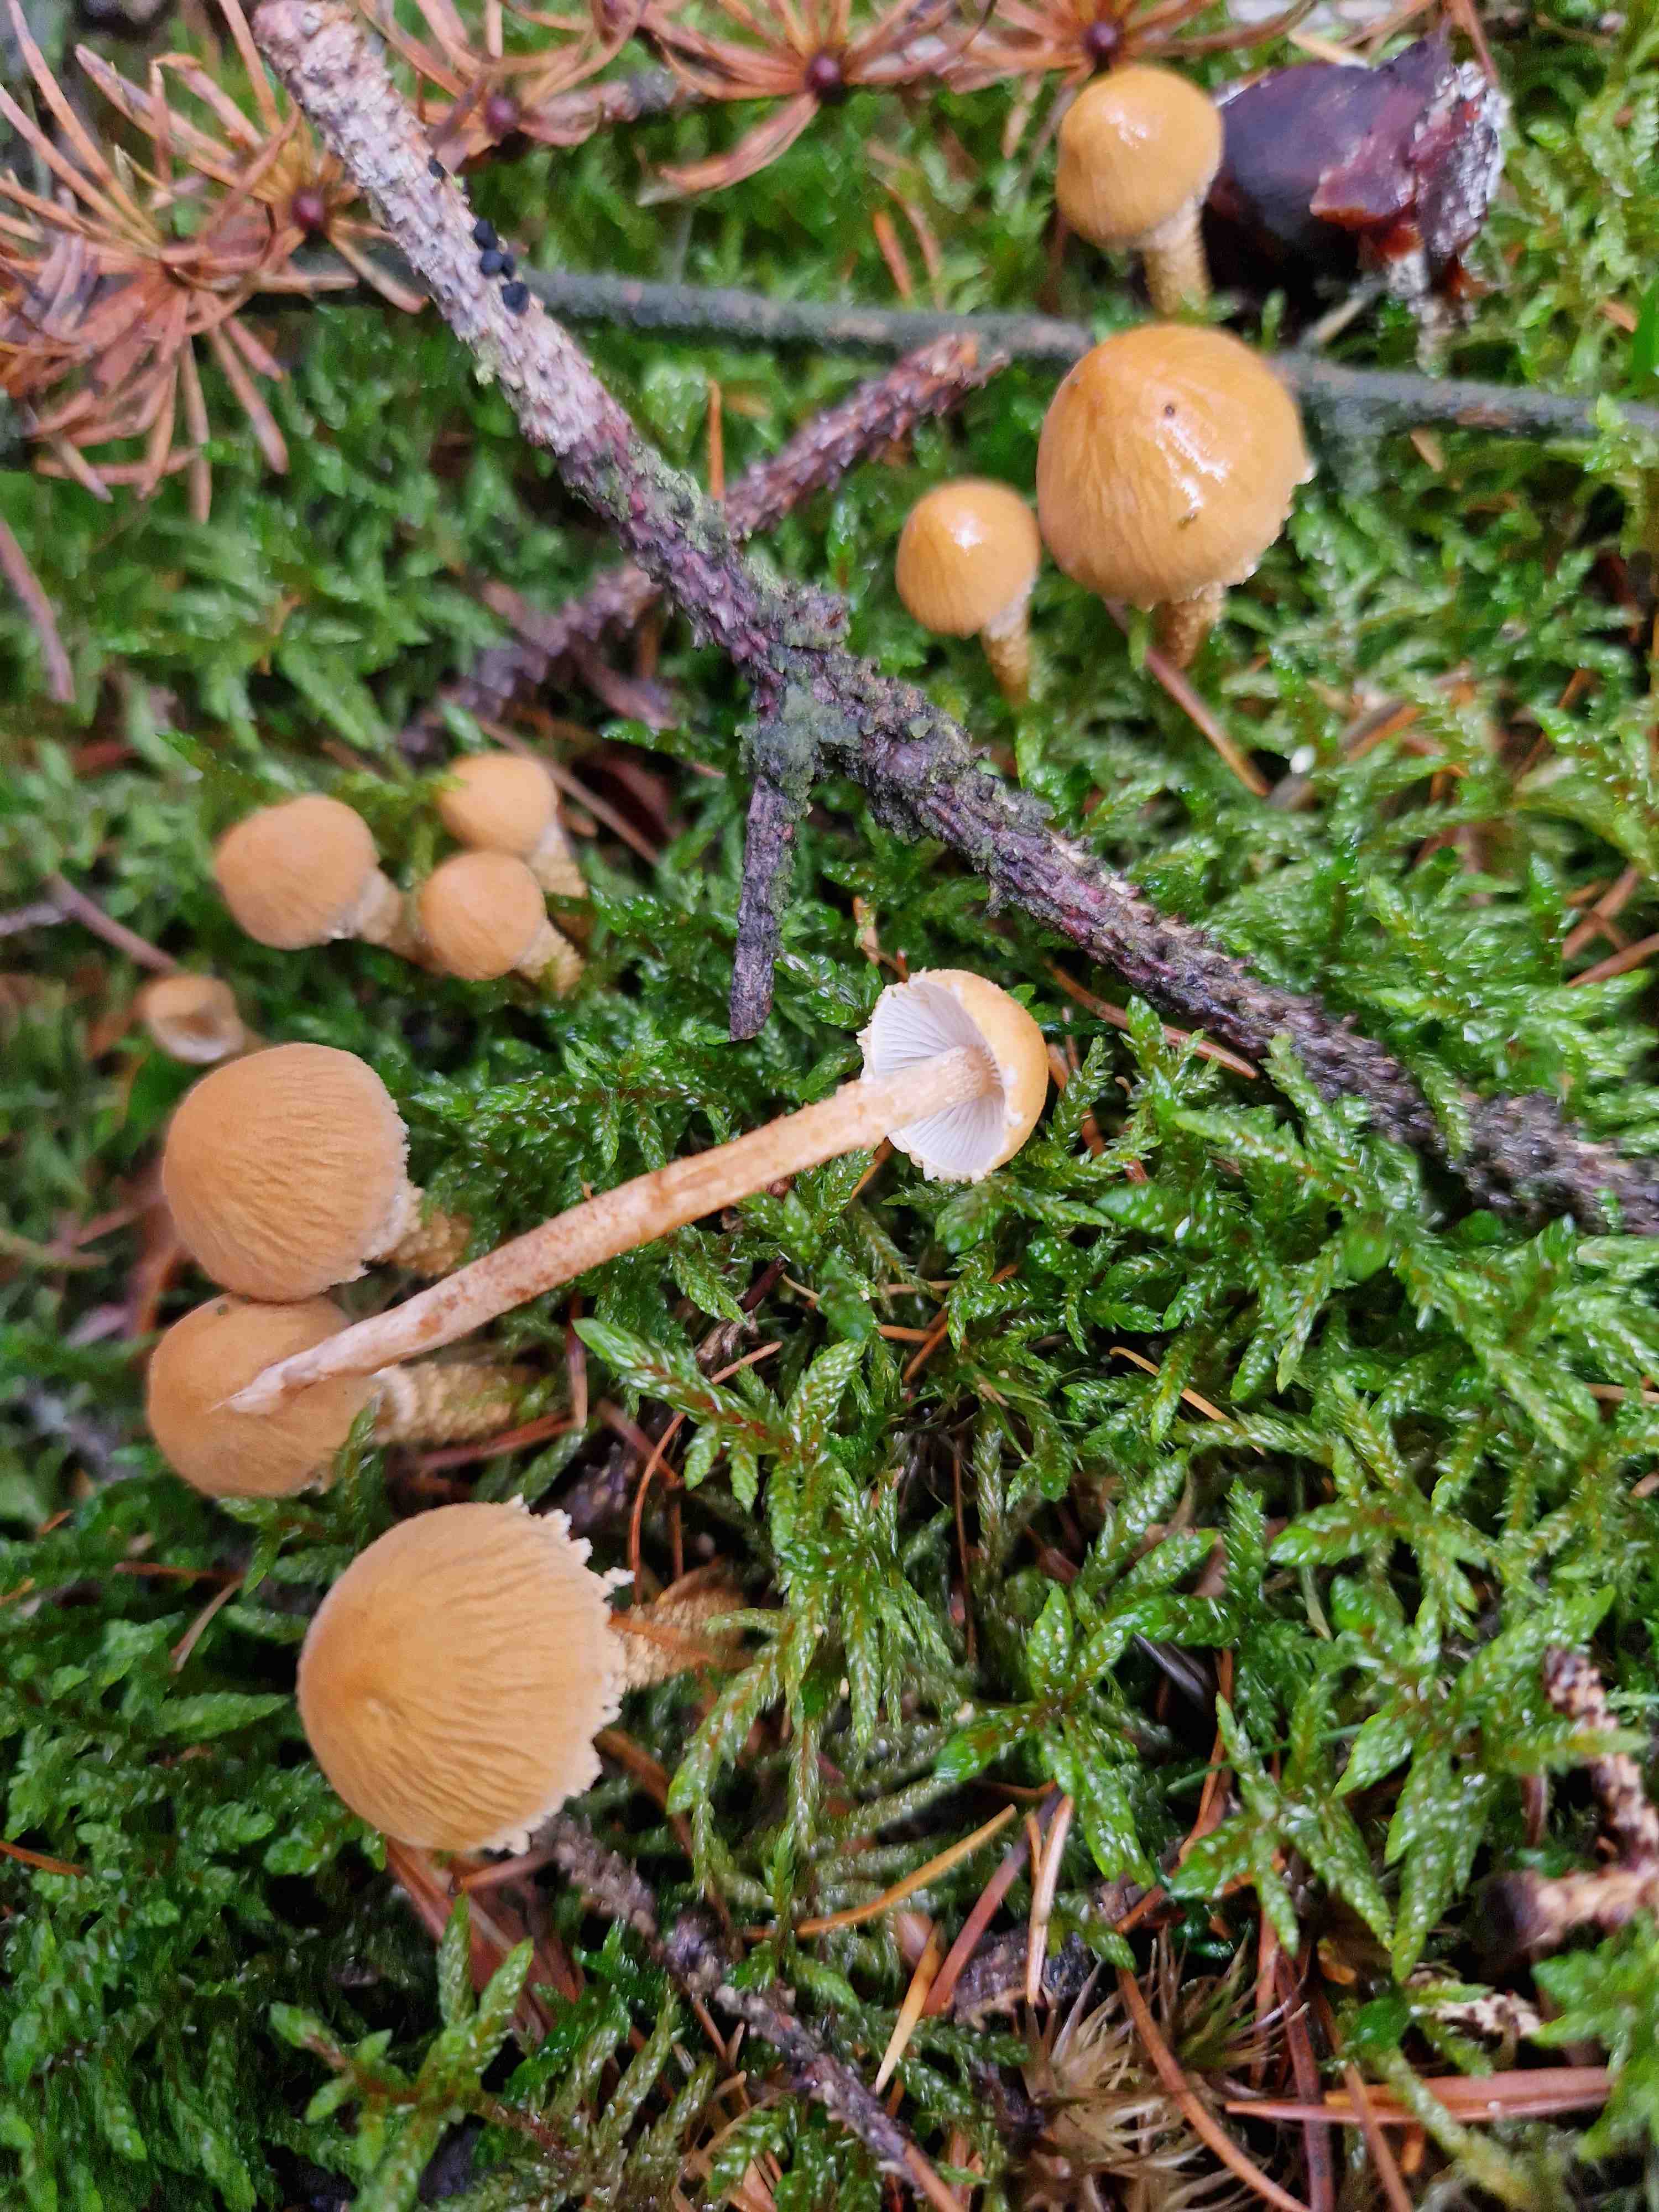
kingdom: Fungi
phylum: Basidiomycota
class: Agaricomycetes
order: Agaricales
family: Tricholomataceae
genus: Cystoderma
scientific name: Cystoderma amianthinum
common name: okkergul grynhat
